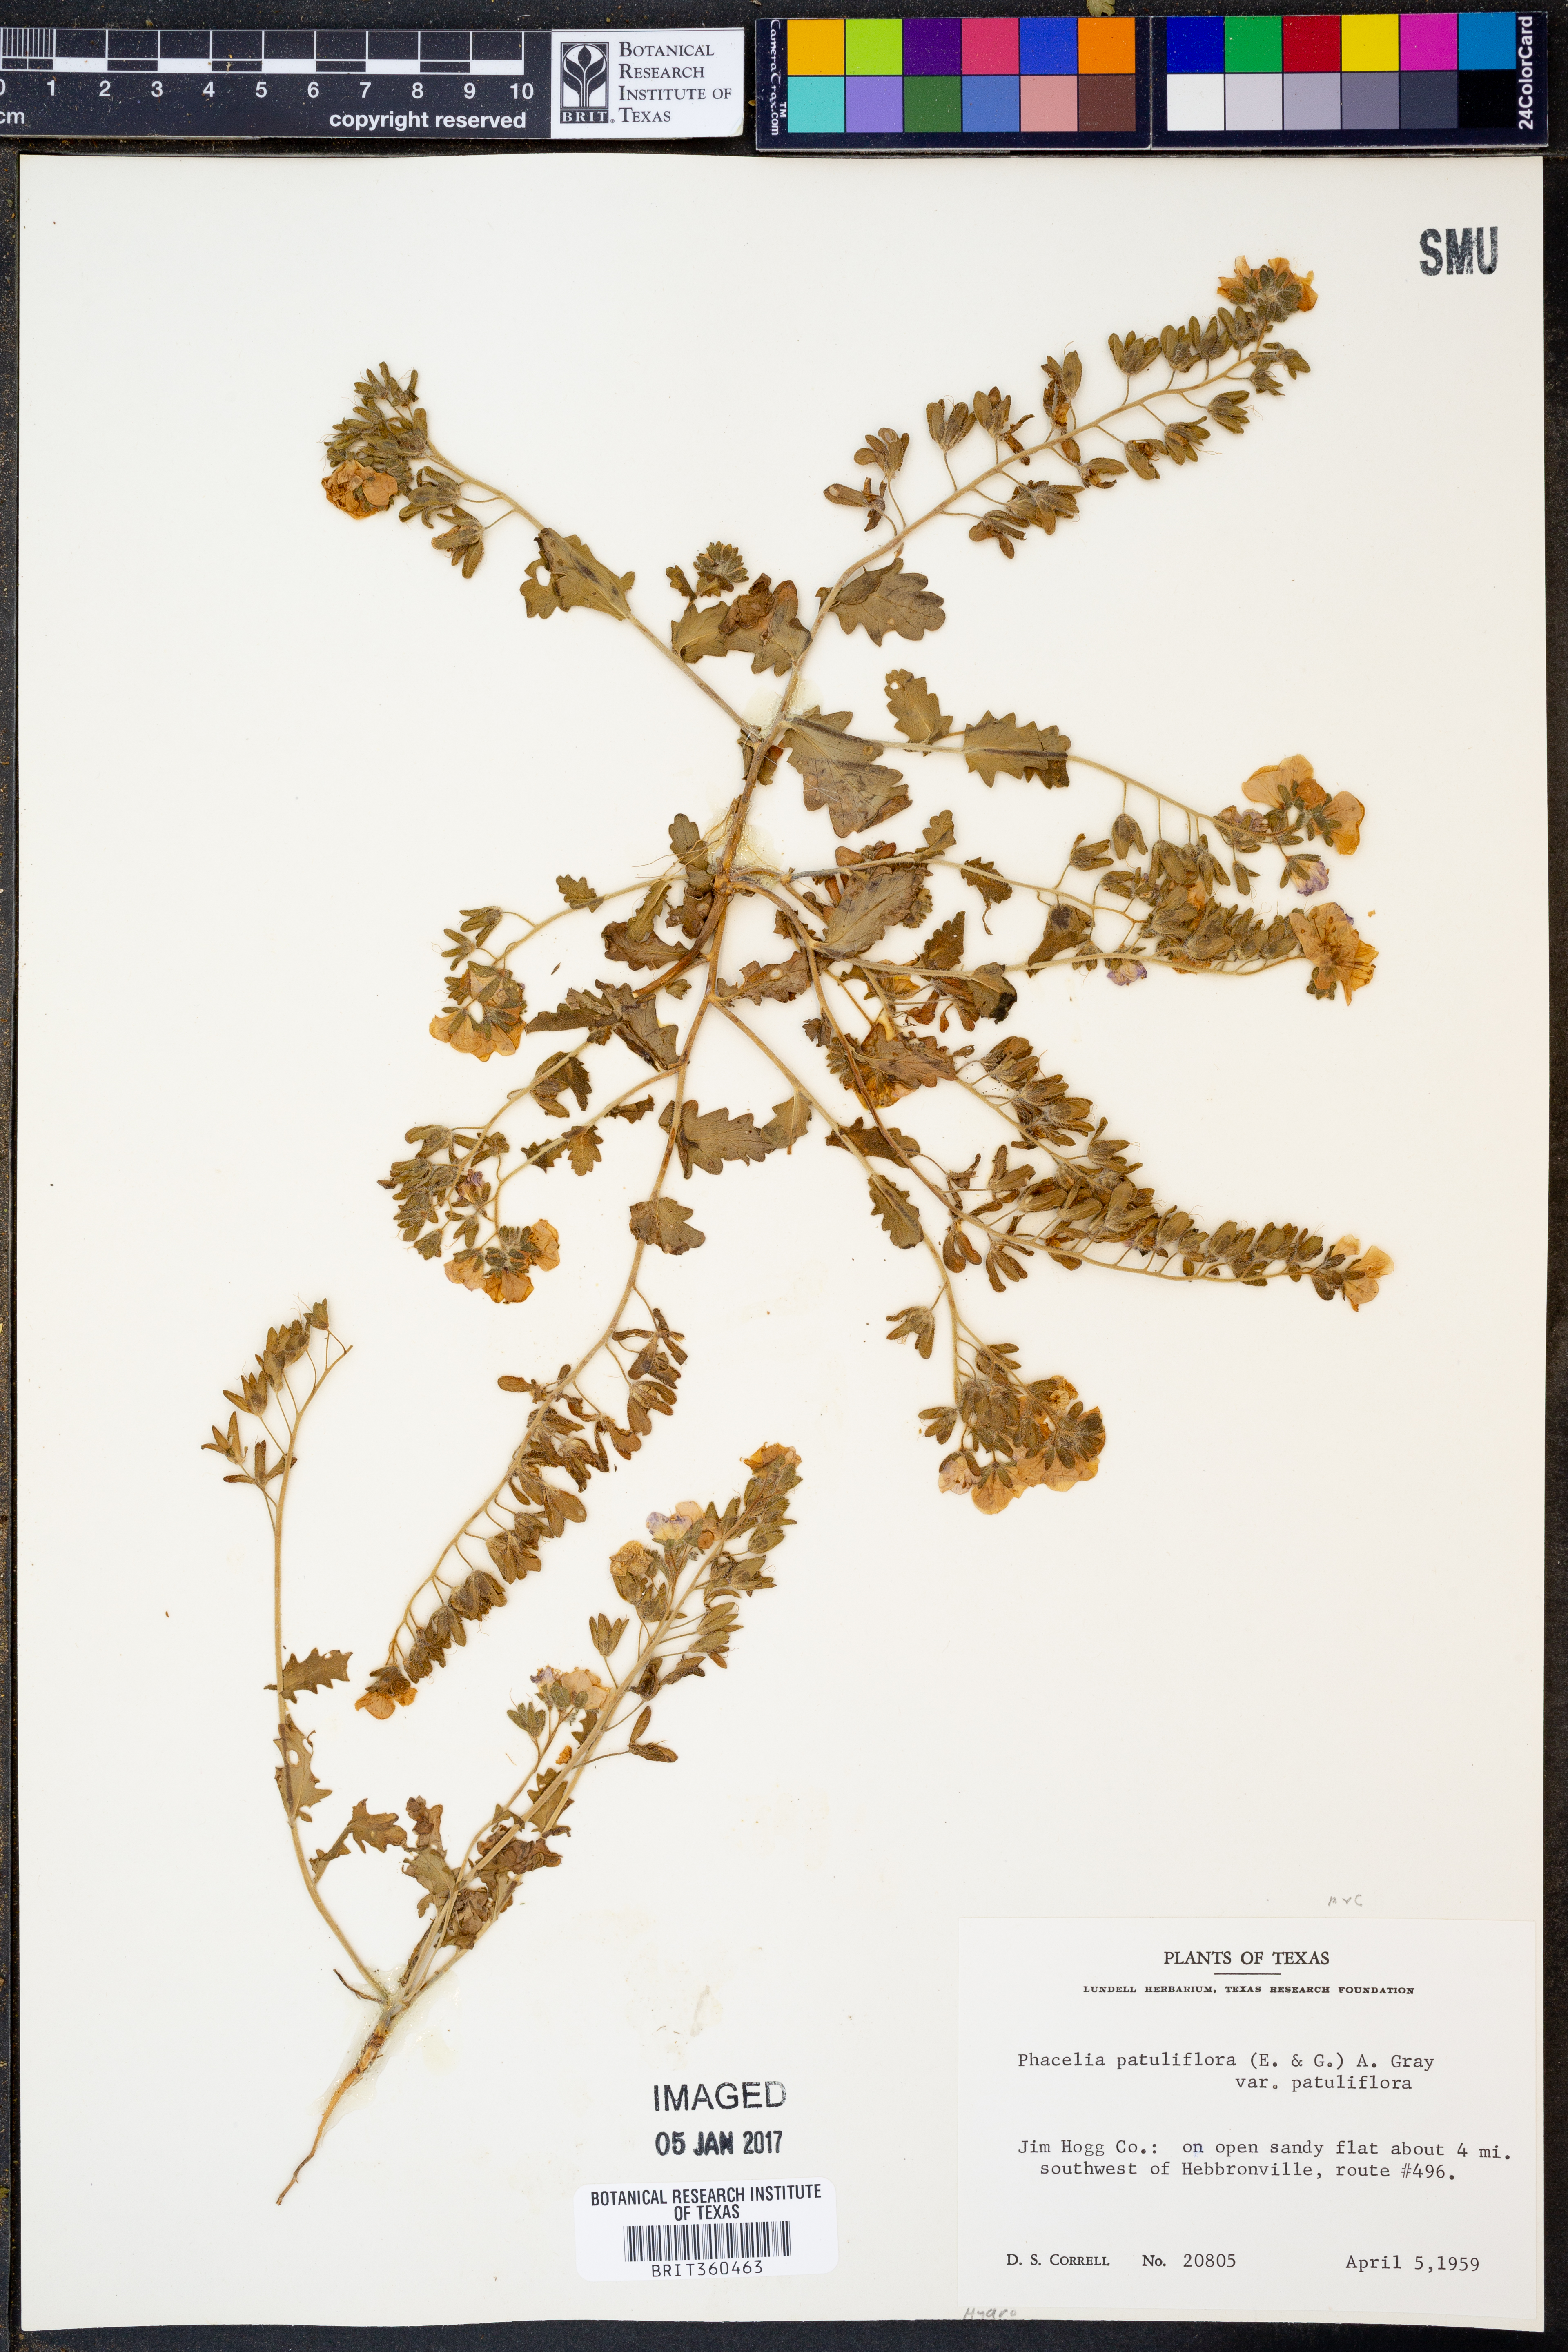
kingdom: Plantae
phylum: Tracheophyta
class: Magnoliopsida
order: Boraginales
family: Hydrophyllaceae
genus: Phacelia
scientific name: Phacelia patuliflora
